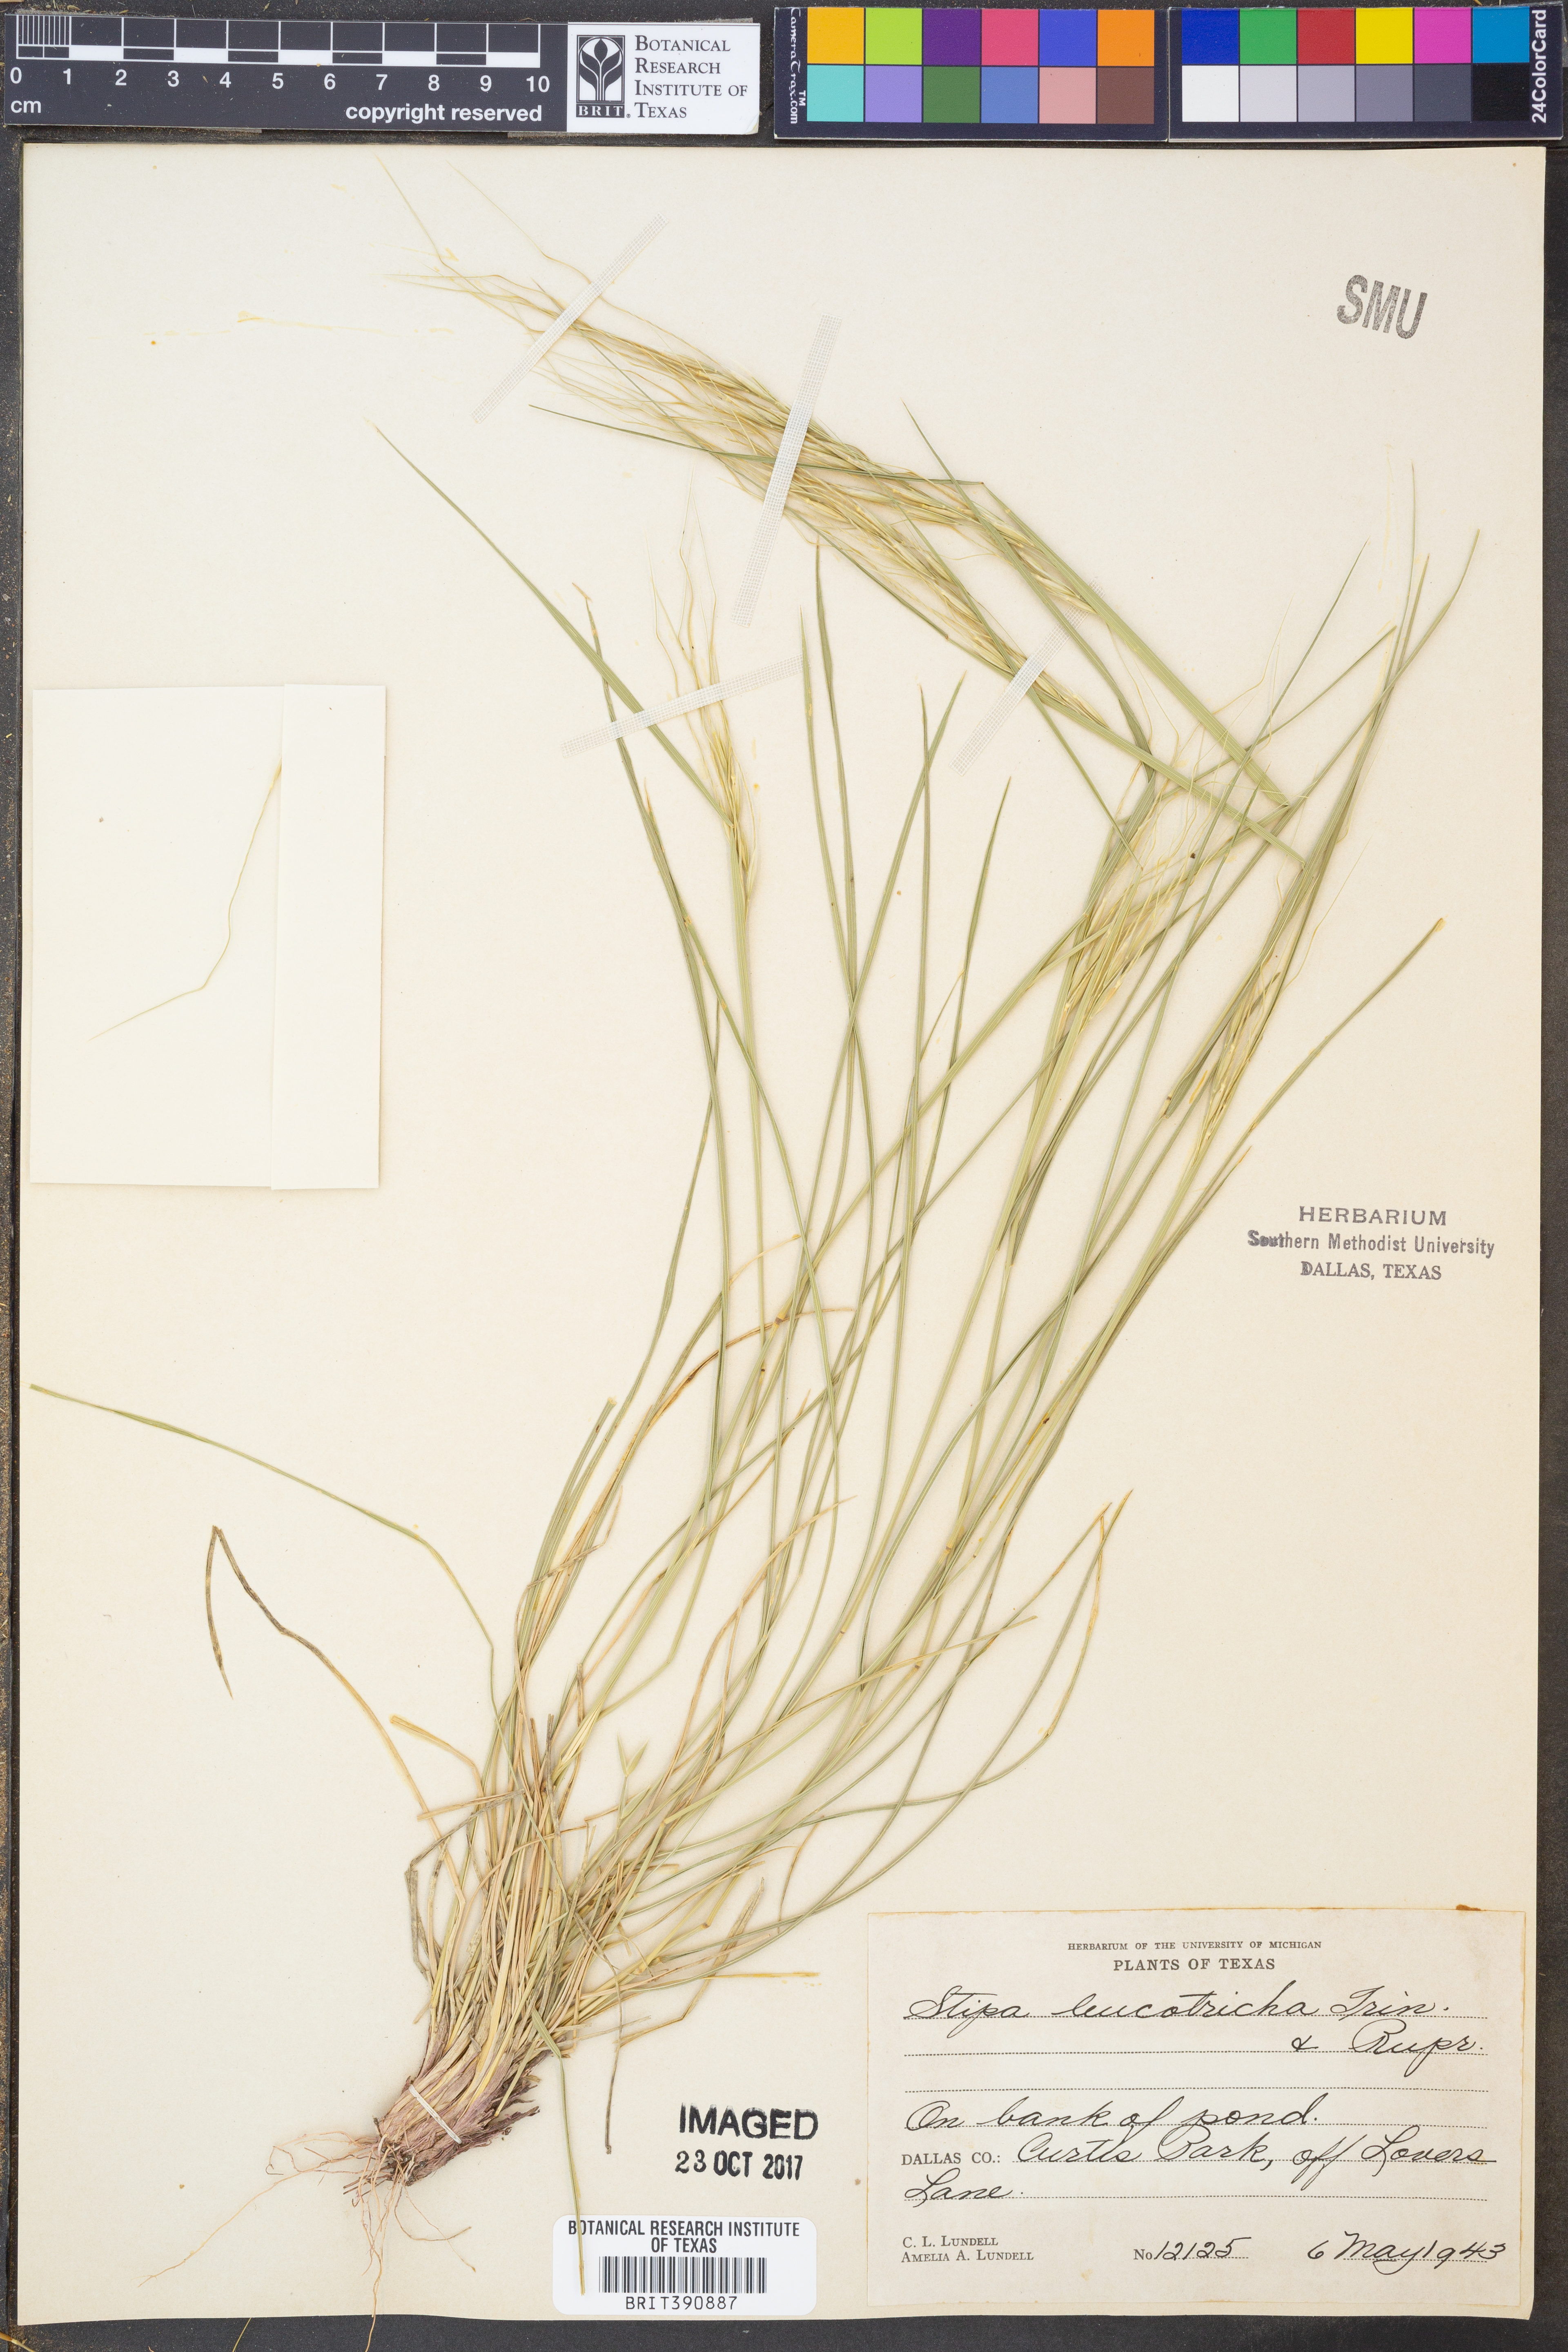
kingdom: Plantae
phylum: Tracheophyta
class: Liliopsida
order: Poales
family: Poaceae
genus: Nassella
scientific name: Nassella leucotricha
